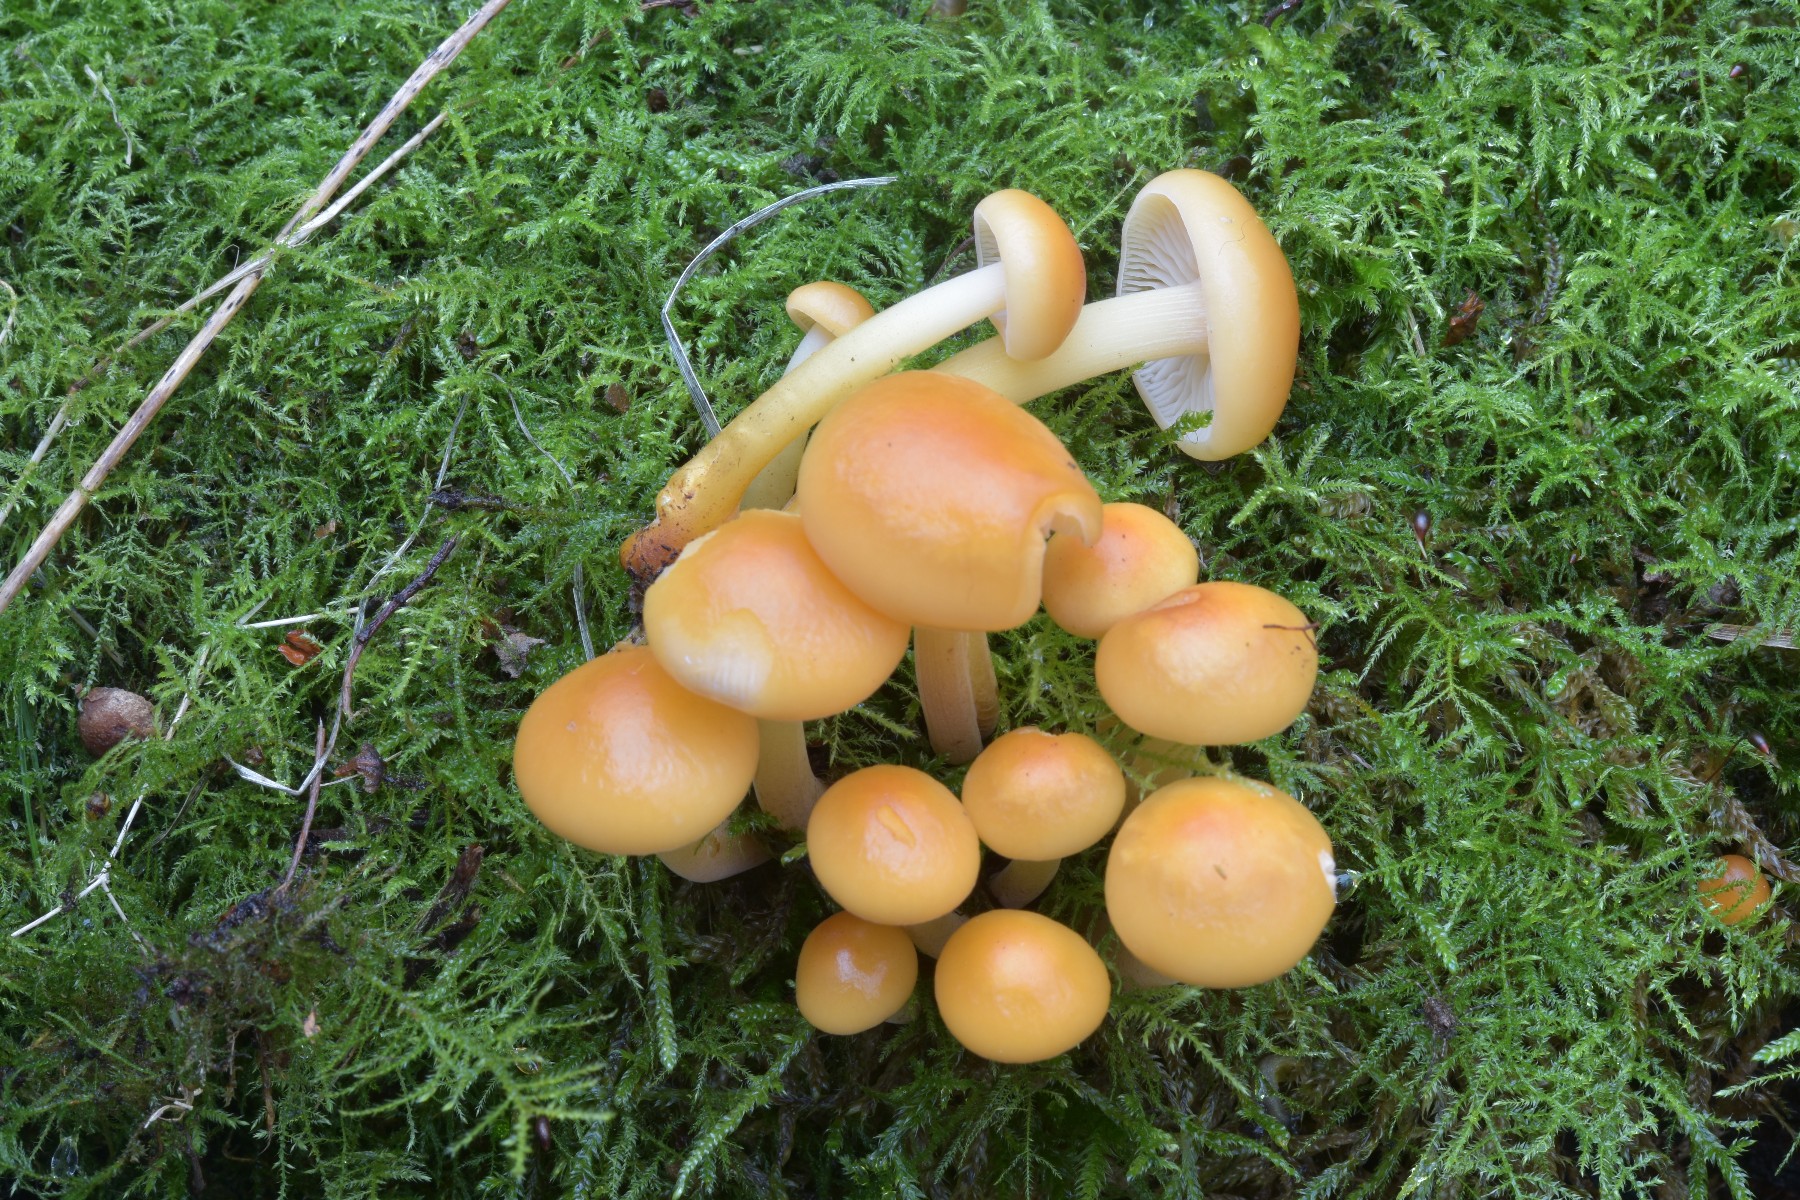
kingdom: Fungi
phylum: Basidiomycota
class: Agaricomycetes
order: Agaricales
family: Physalacriaceae
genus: Flammulina
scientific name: Flammulina velutipes
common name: gul fløjlsfod
